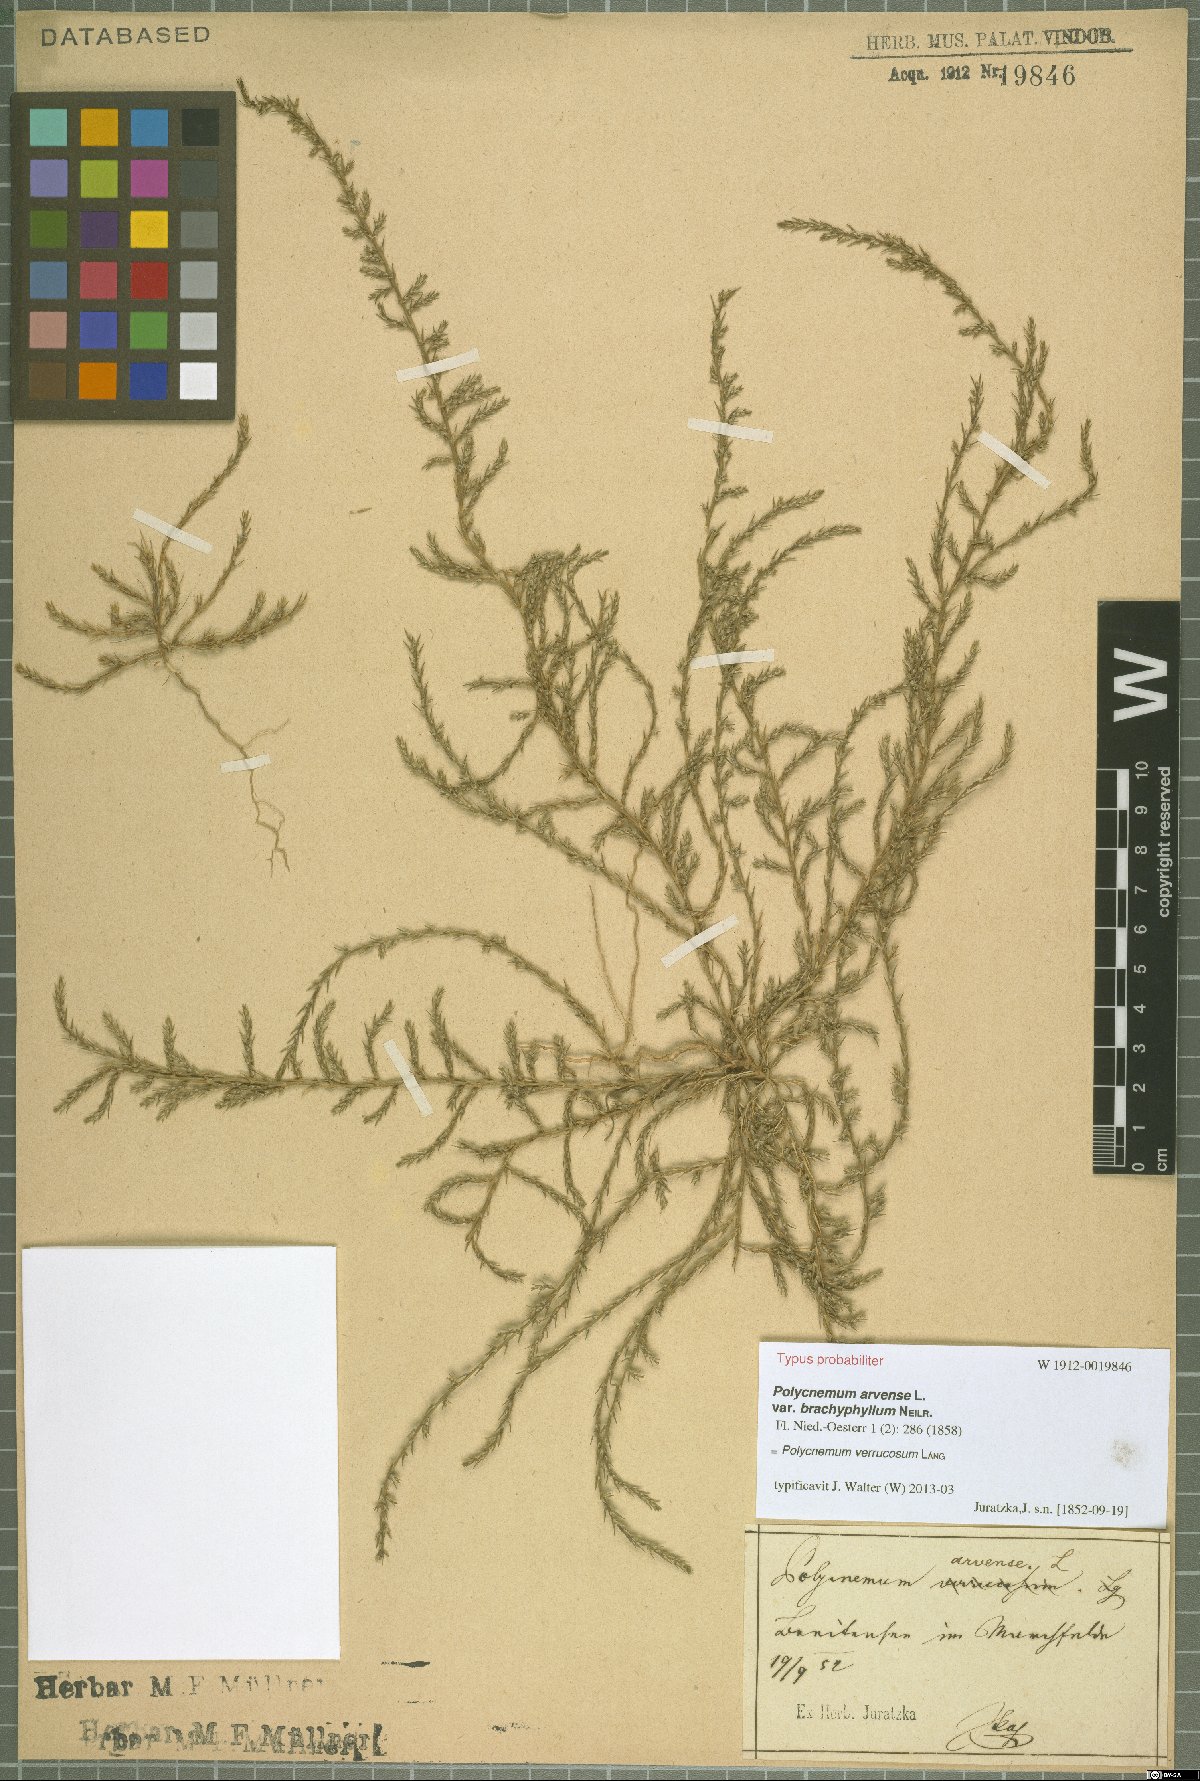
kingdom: Plantae
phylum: Tracheophyta
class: Magnoliopsida
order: Caryophyllales
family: Amaranthaceae
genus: Polycnemum
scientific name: Polycnemum verrucosum
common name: Warty needleleaf
